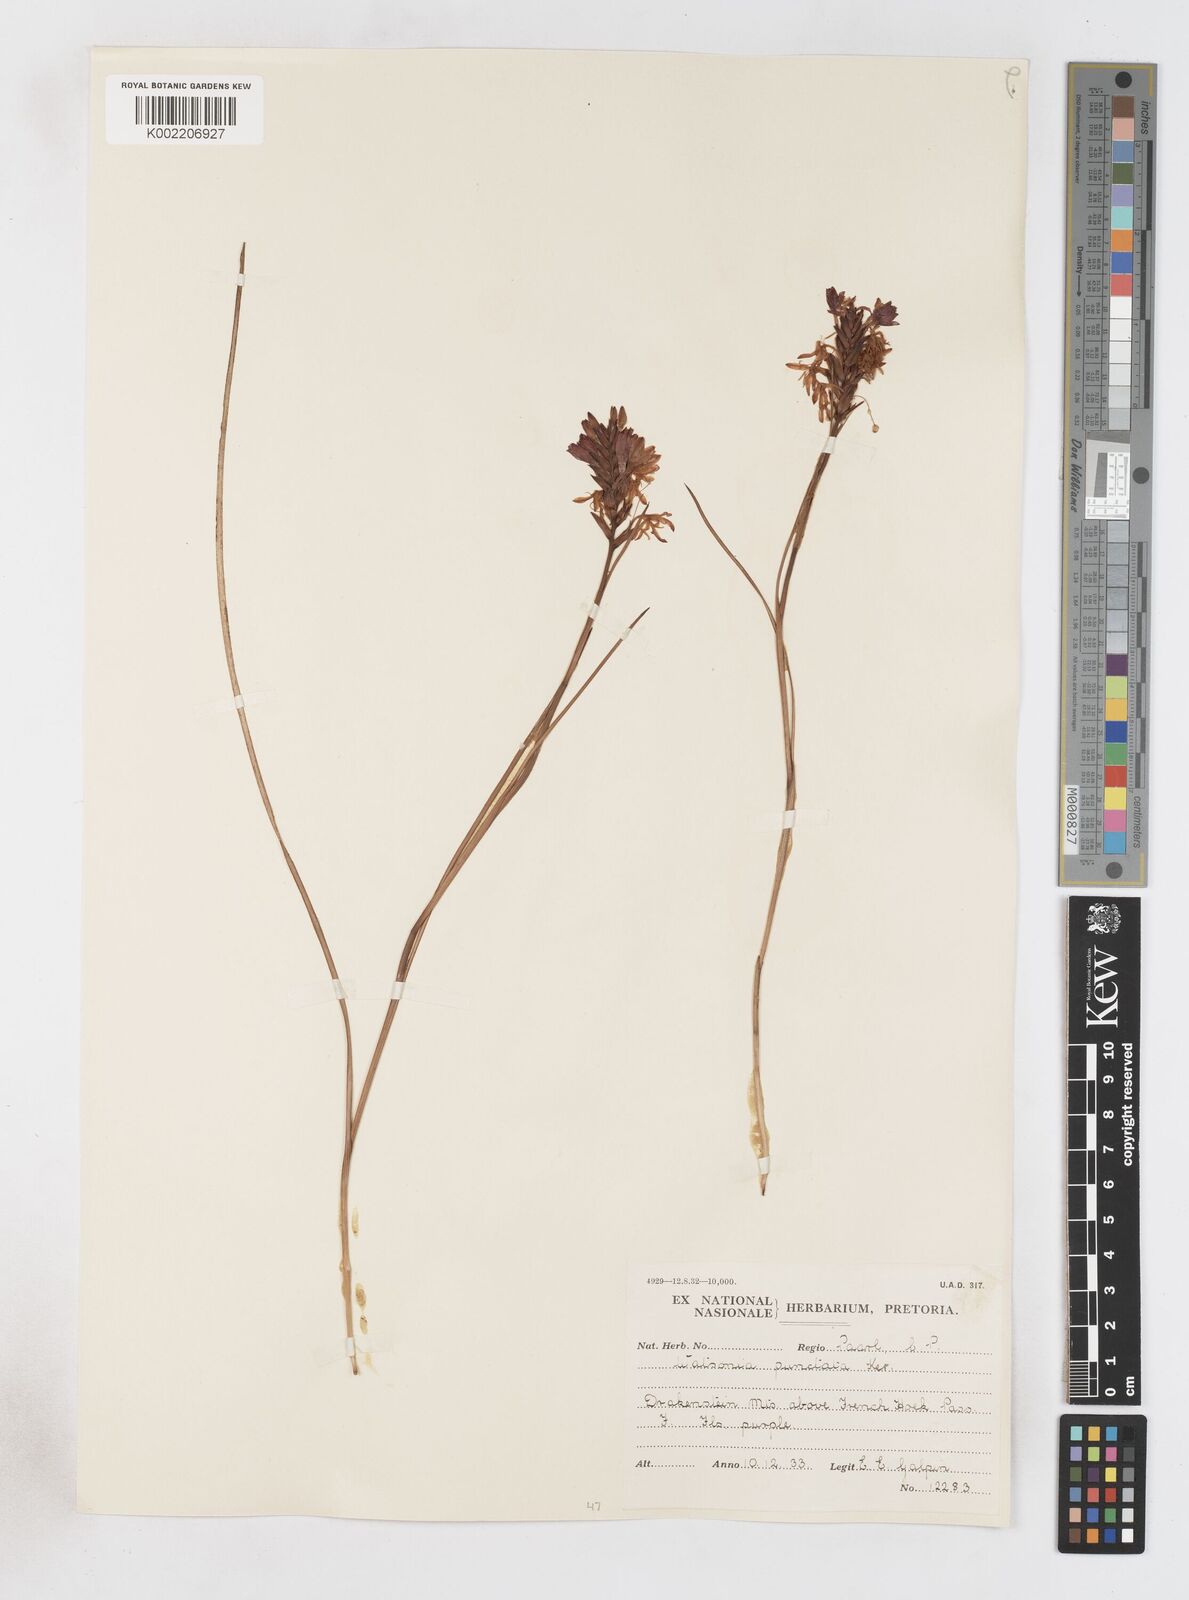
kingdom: Plantae
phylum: Tracheophyta
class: Liliopsida
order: Asparagales
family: Iridaceae
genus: Thereianthus
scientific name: Thereianthus spicatus
